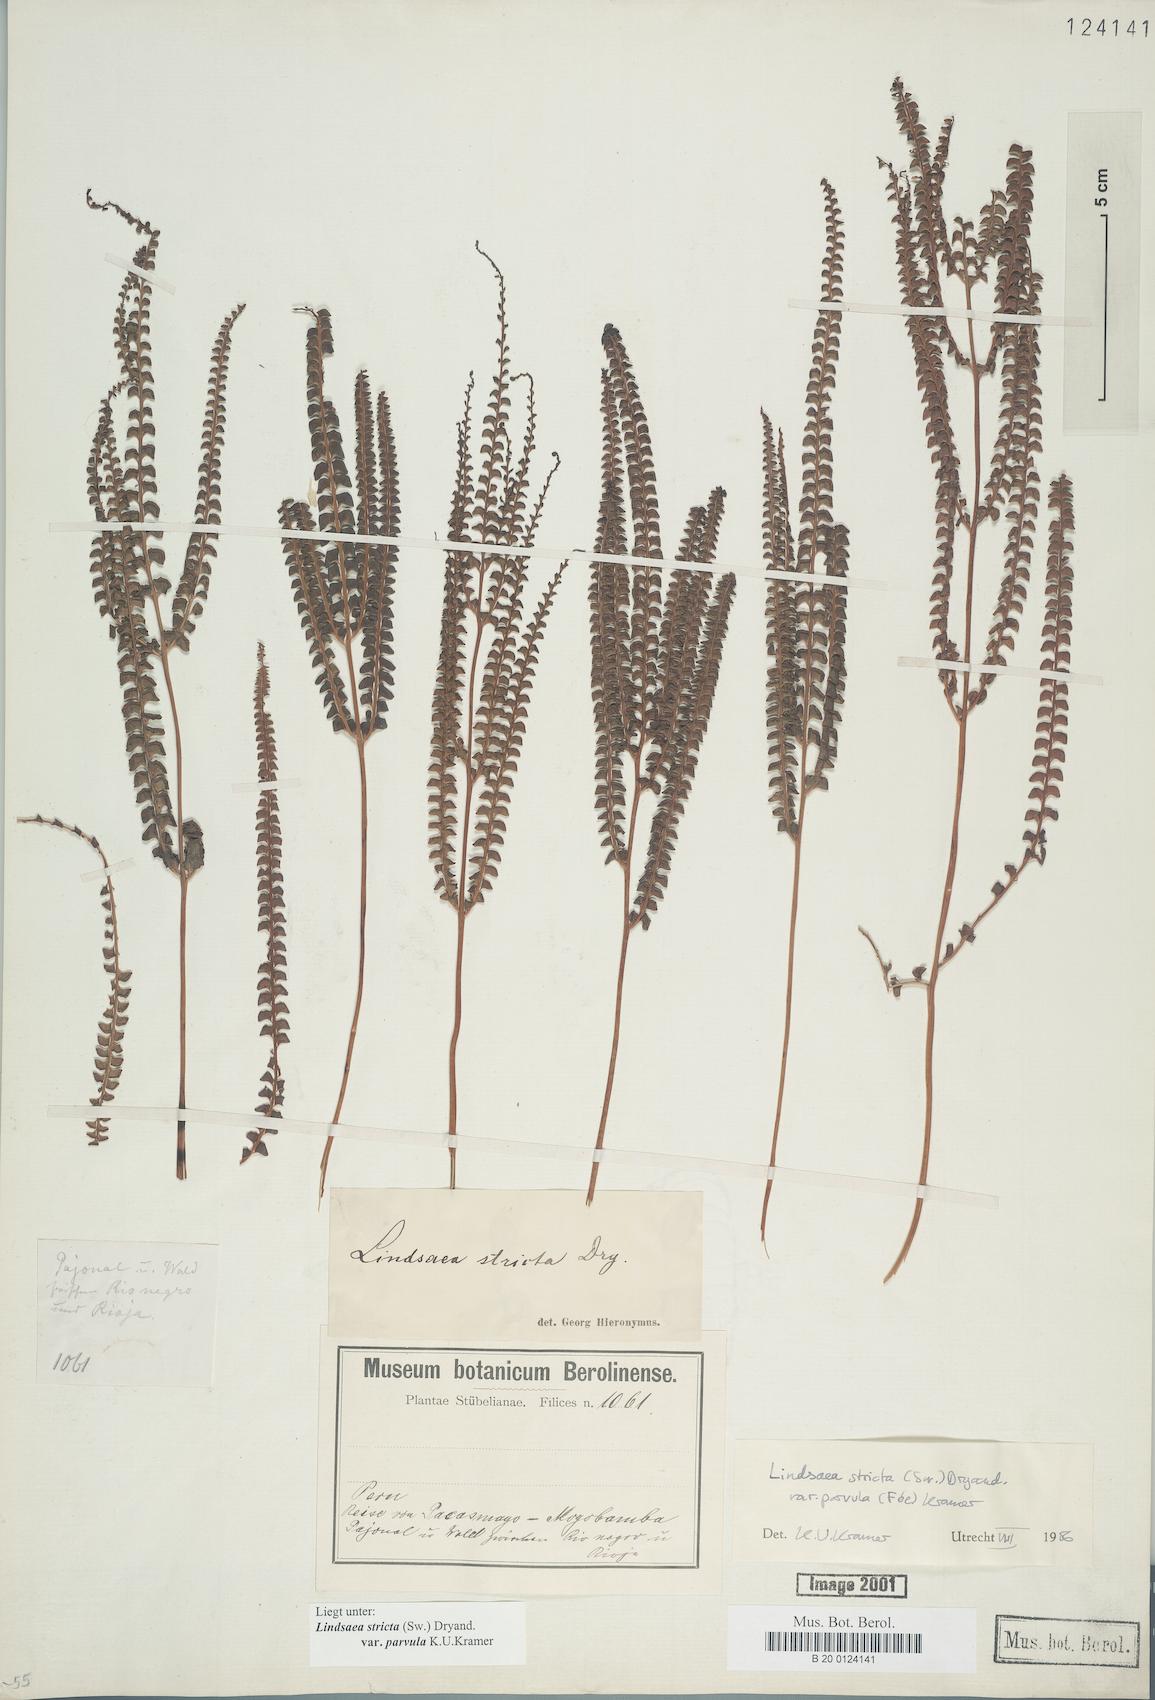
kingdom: Plantae
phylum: Tracheophyta
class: Polypodiopsida
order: Polypodiales
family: Lindsaeaceae
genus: Lindsaea
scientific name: Lindsaea stricta
